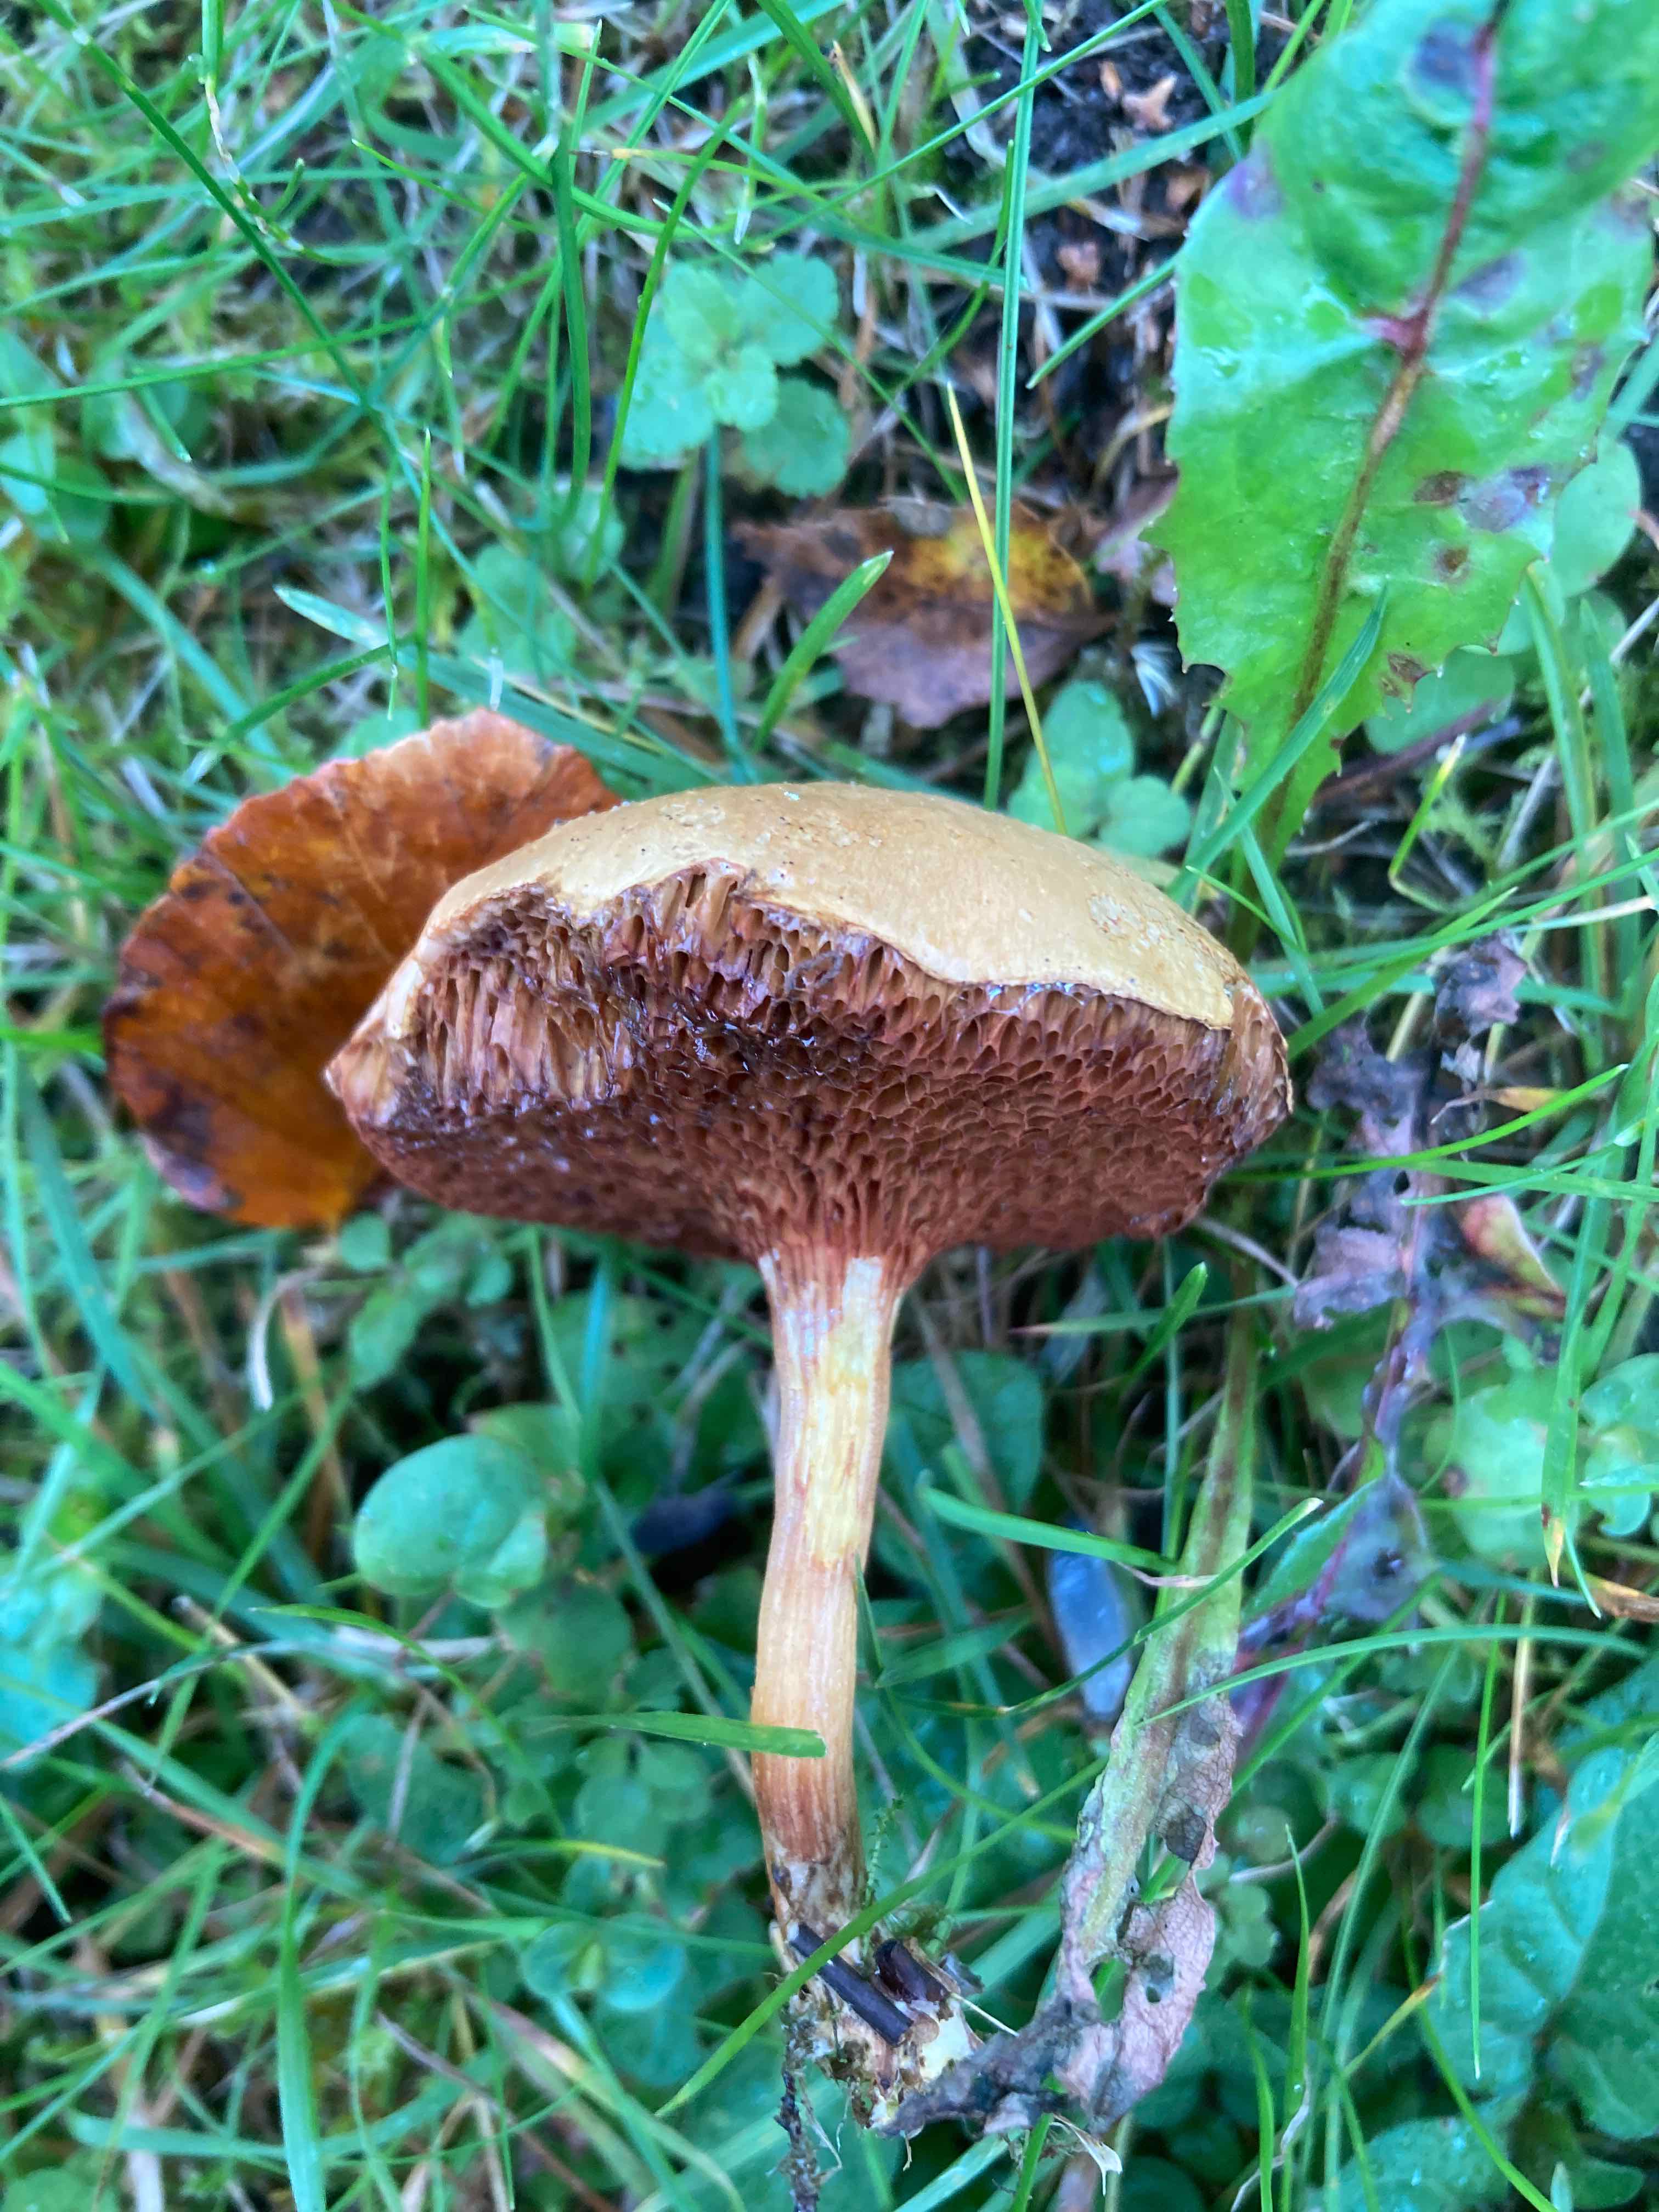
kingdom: Fungi
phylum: Basidiomycota
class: Agaricomycetes
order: Boletales
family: Boletaceae
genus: Chalciporus
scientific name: Chalciporus piperatus
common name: peberrørhat
